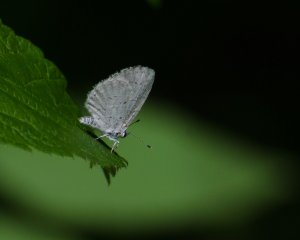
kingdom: Animalia
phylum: Arthropoda
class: Insecta
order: Lepidoptera
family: Lycaenidae
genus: Celastrina
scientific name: Celastrina lucia
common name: Northern Spring Azure
